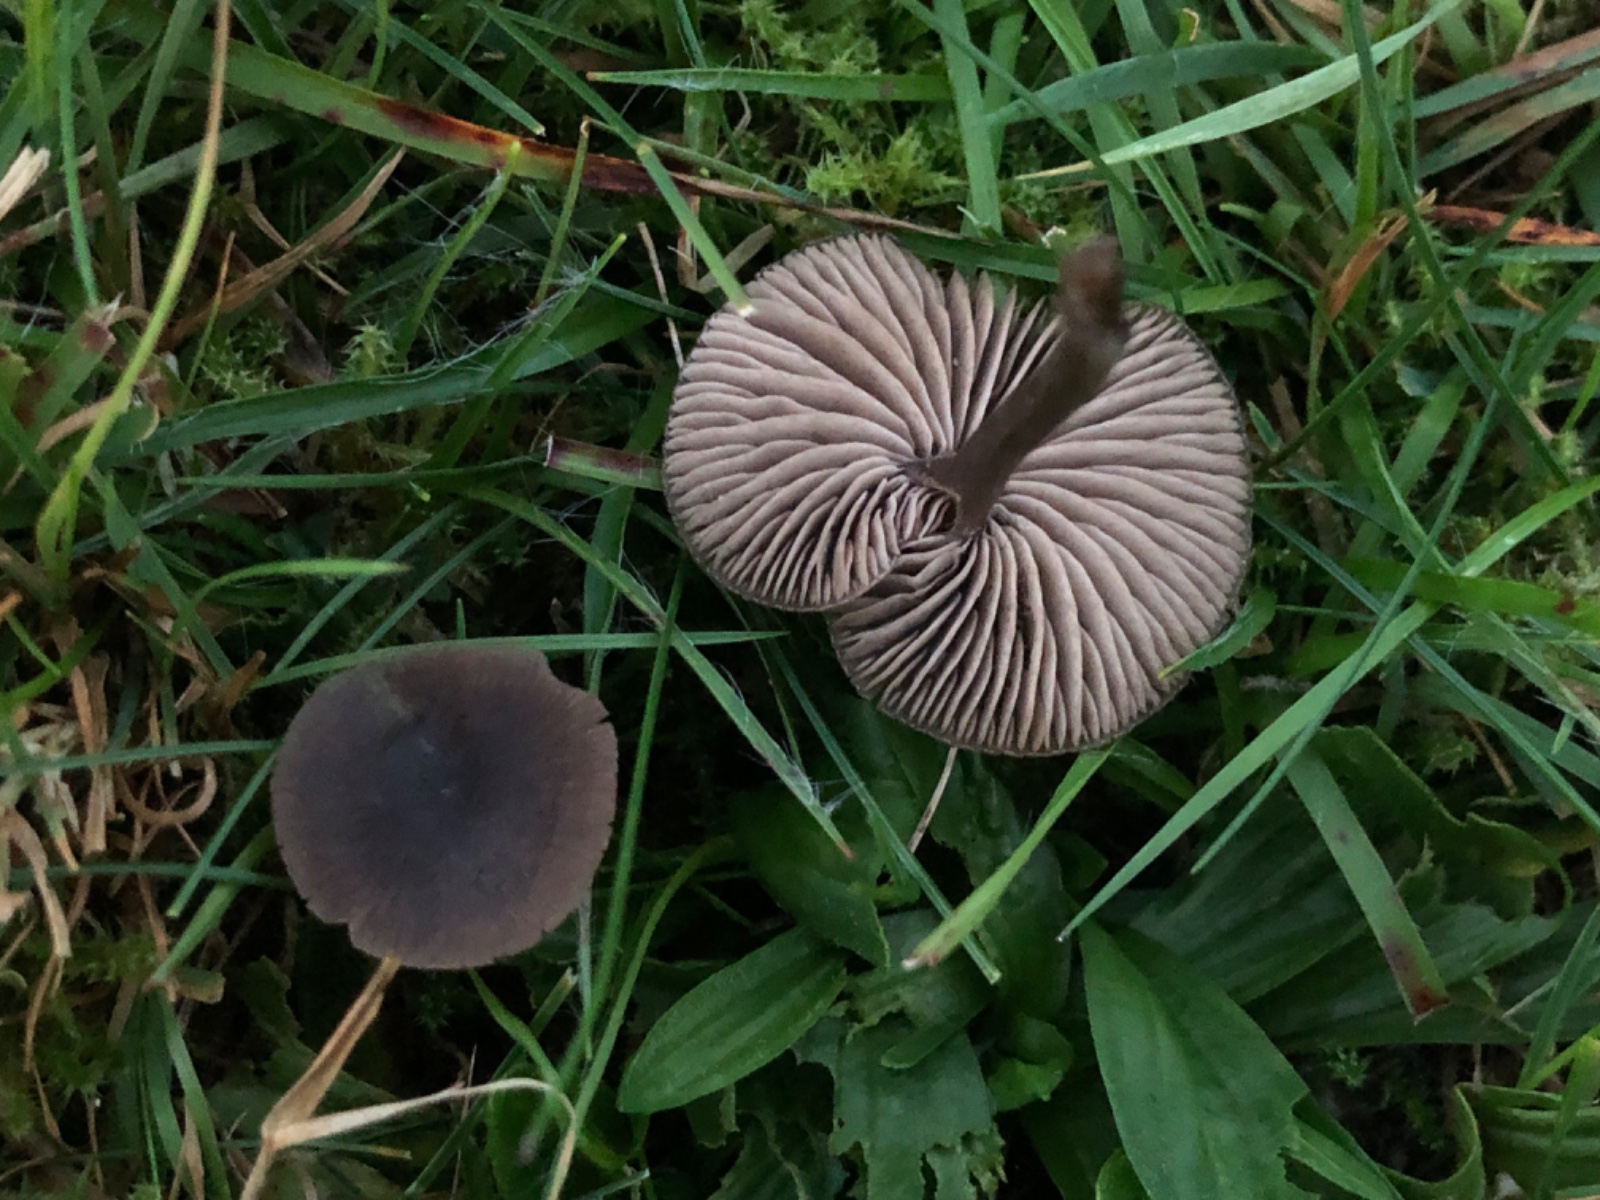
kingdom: Fungi
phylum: Basidiomycota
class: Agaricomycetes
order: Agaricales
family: Entolomataceae
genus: Entoloma
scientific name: Entoloma
